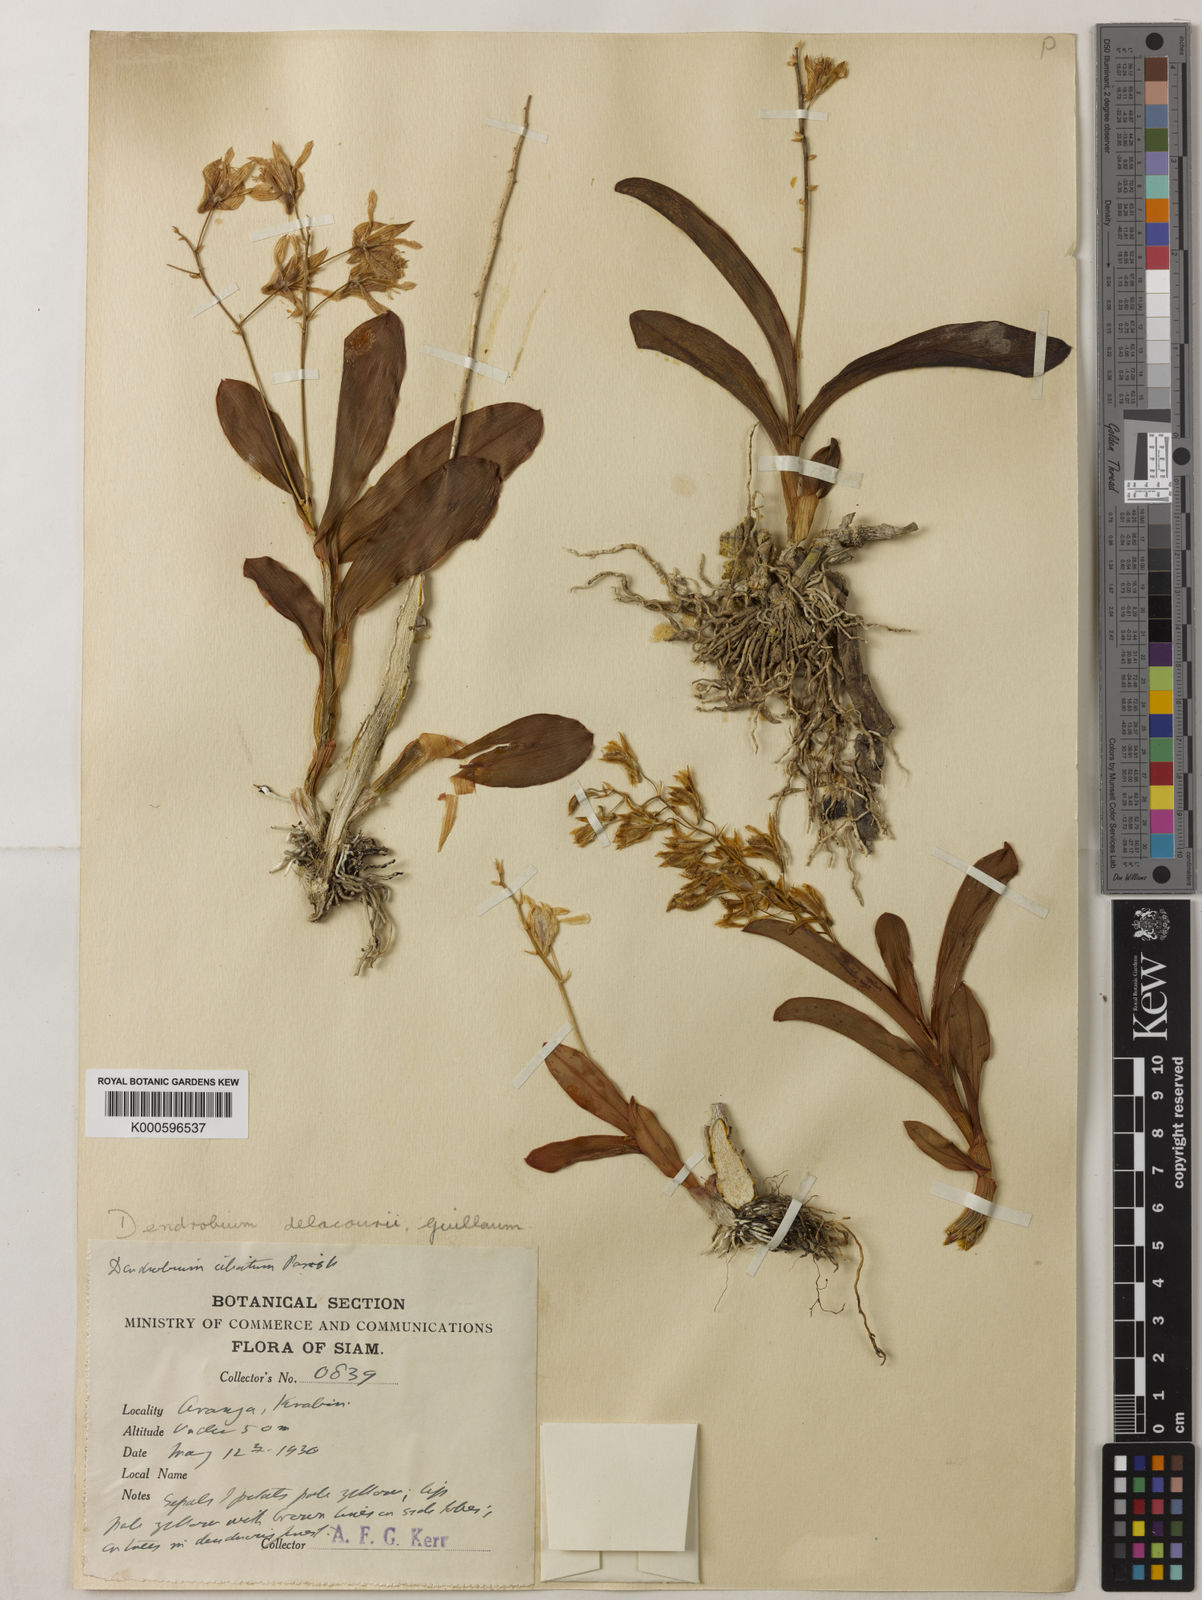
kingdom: Plantae
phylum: Tracheophyta
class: Liliopsida
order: Asparagales
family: Orchidaceae
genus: Dendrobium
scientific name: Dendrobium delacourii
